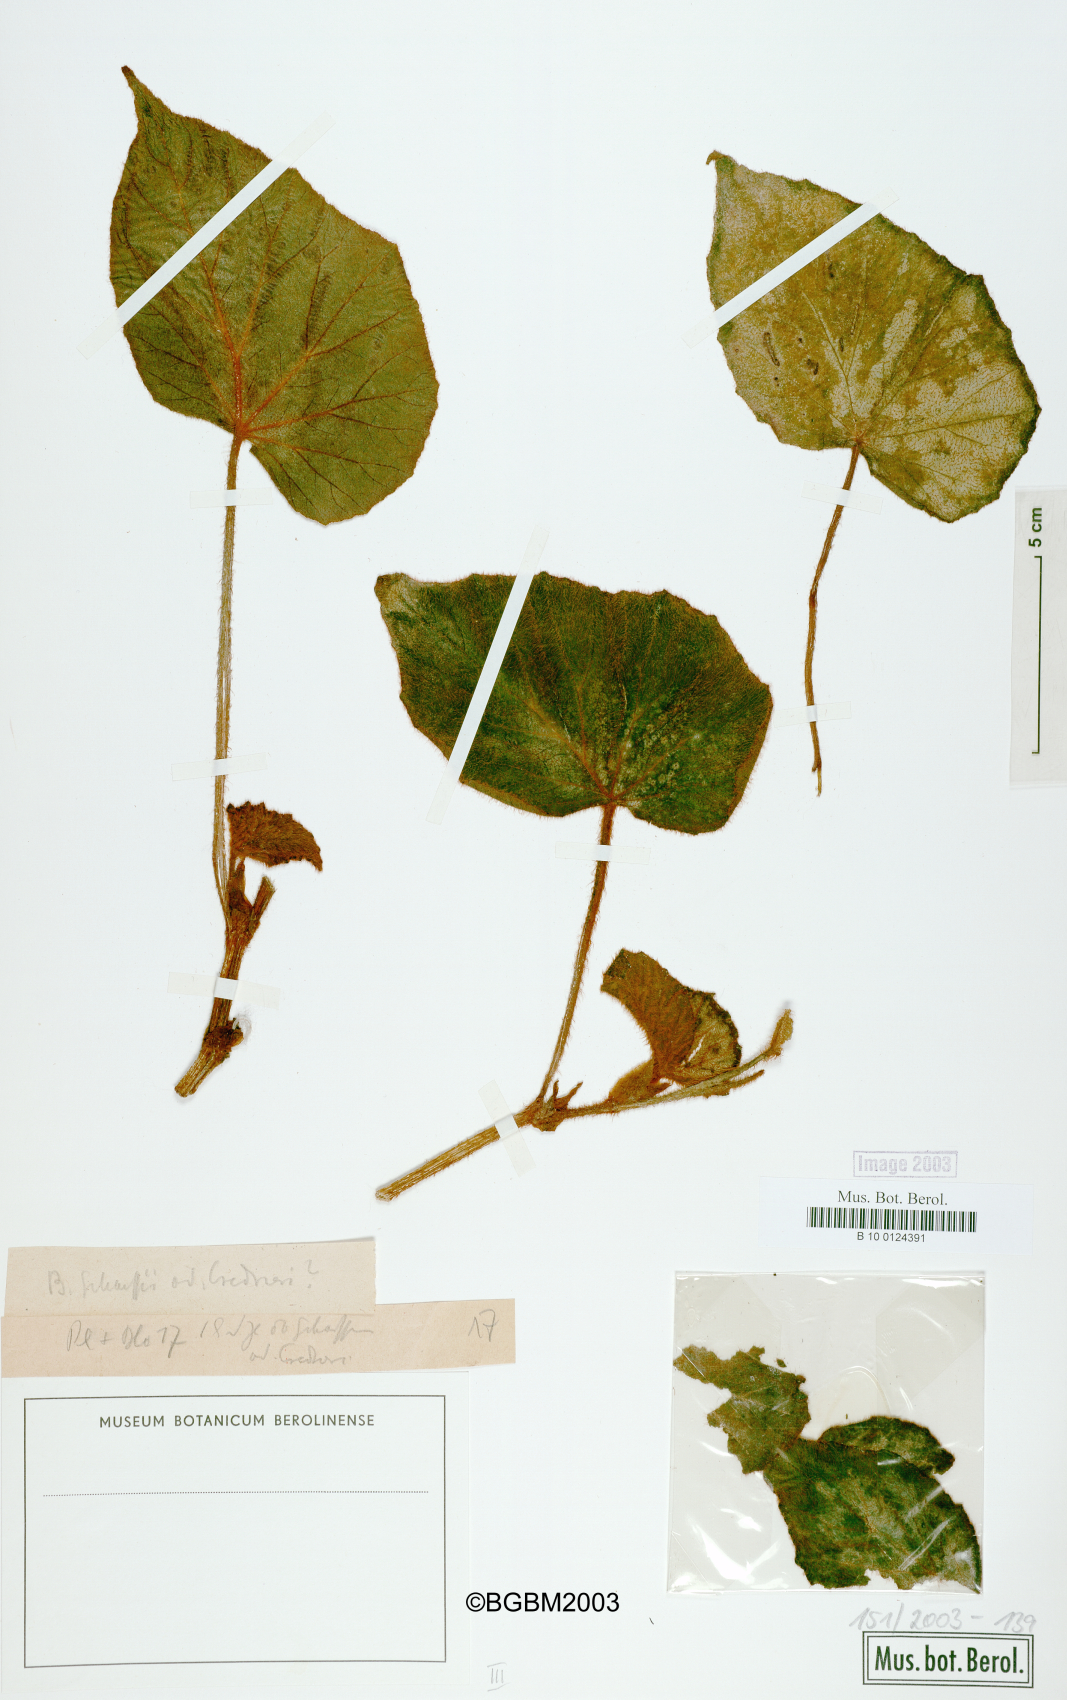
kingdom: Plantae
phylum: Tracheophyta
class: Magnoliopsida
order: Cucurbitales
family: Begoniaceae
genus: Begonia
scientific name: Begonia scharffiana
